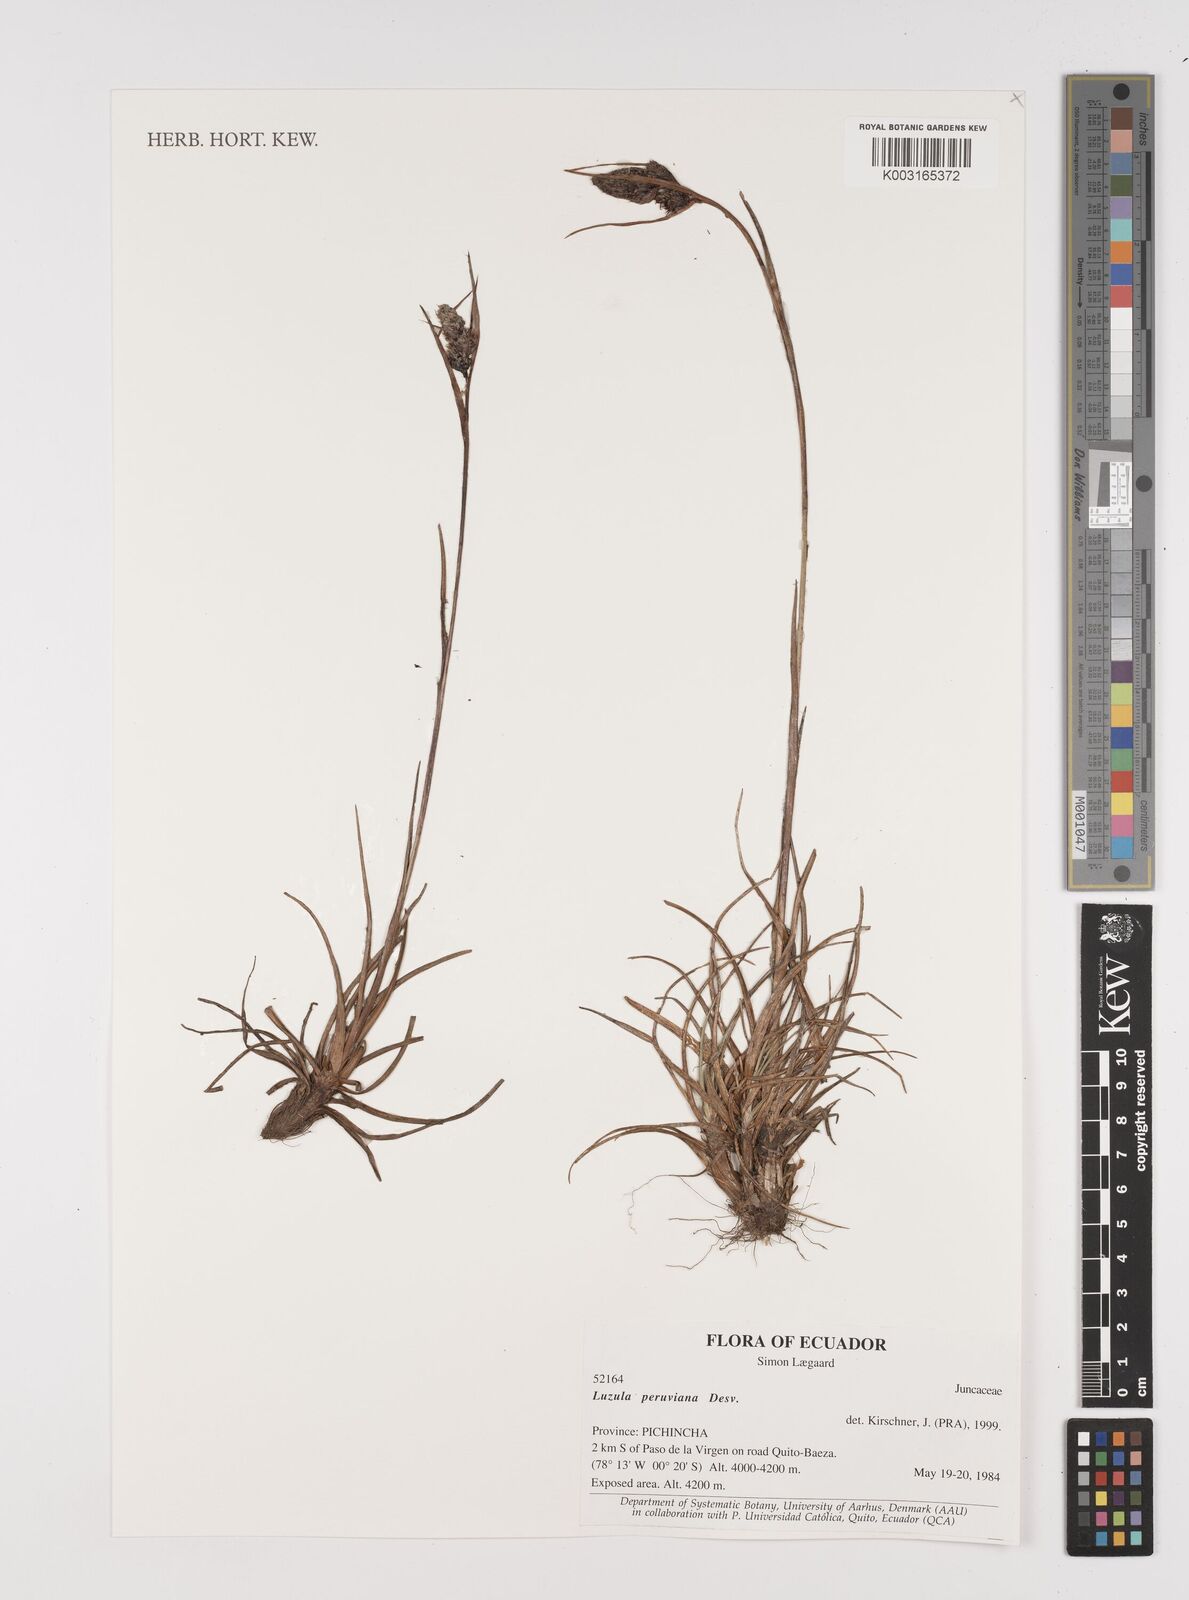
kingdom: Plantae
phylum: Tracheophyta
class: Liliopsida
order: Poales
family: Juncaceae
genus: Luzula
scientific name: Luzula peruviana
